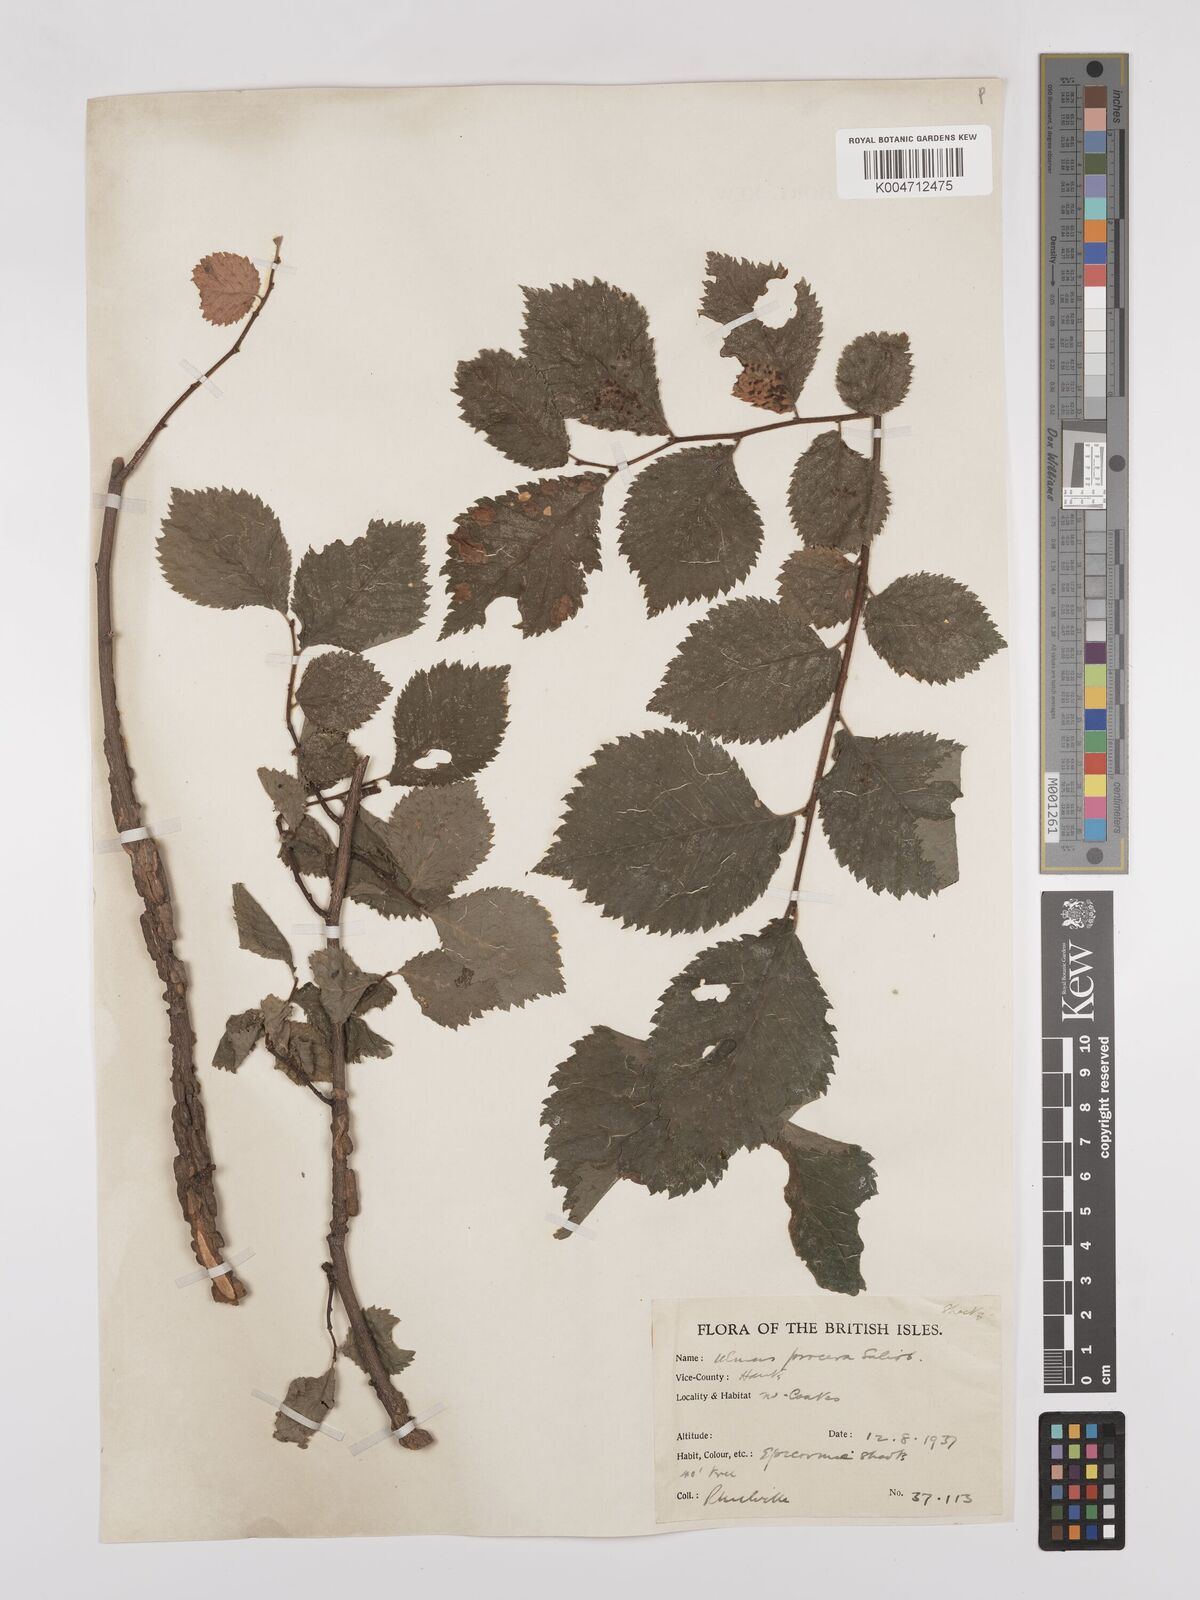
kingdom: Plantae
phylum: Tracheophyta
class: Magnoliopsida
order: Rosales
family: Ulmaceae
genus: Ulmus
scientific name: Ulmus minor
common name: Small-leaved elm
